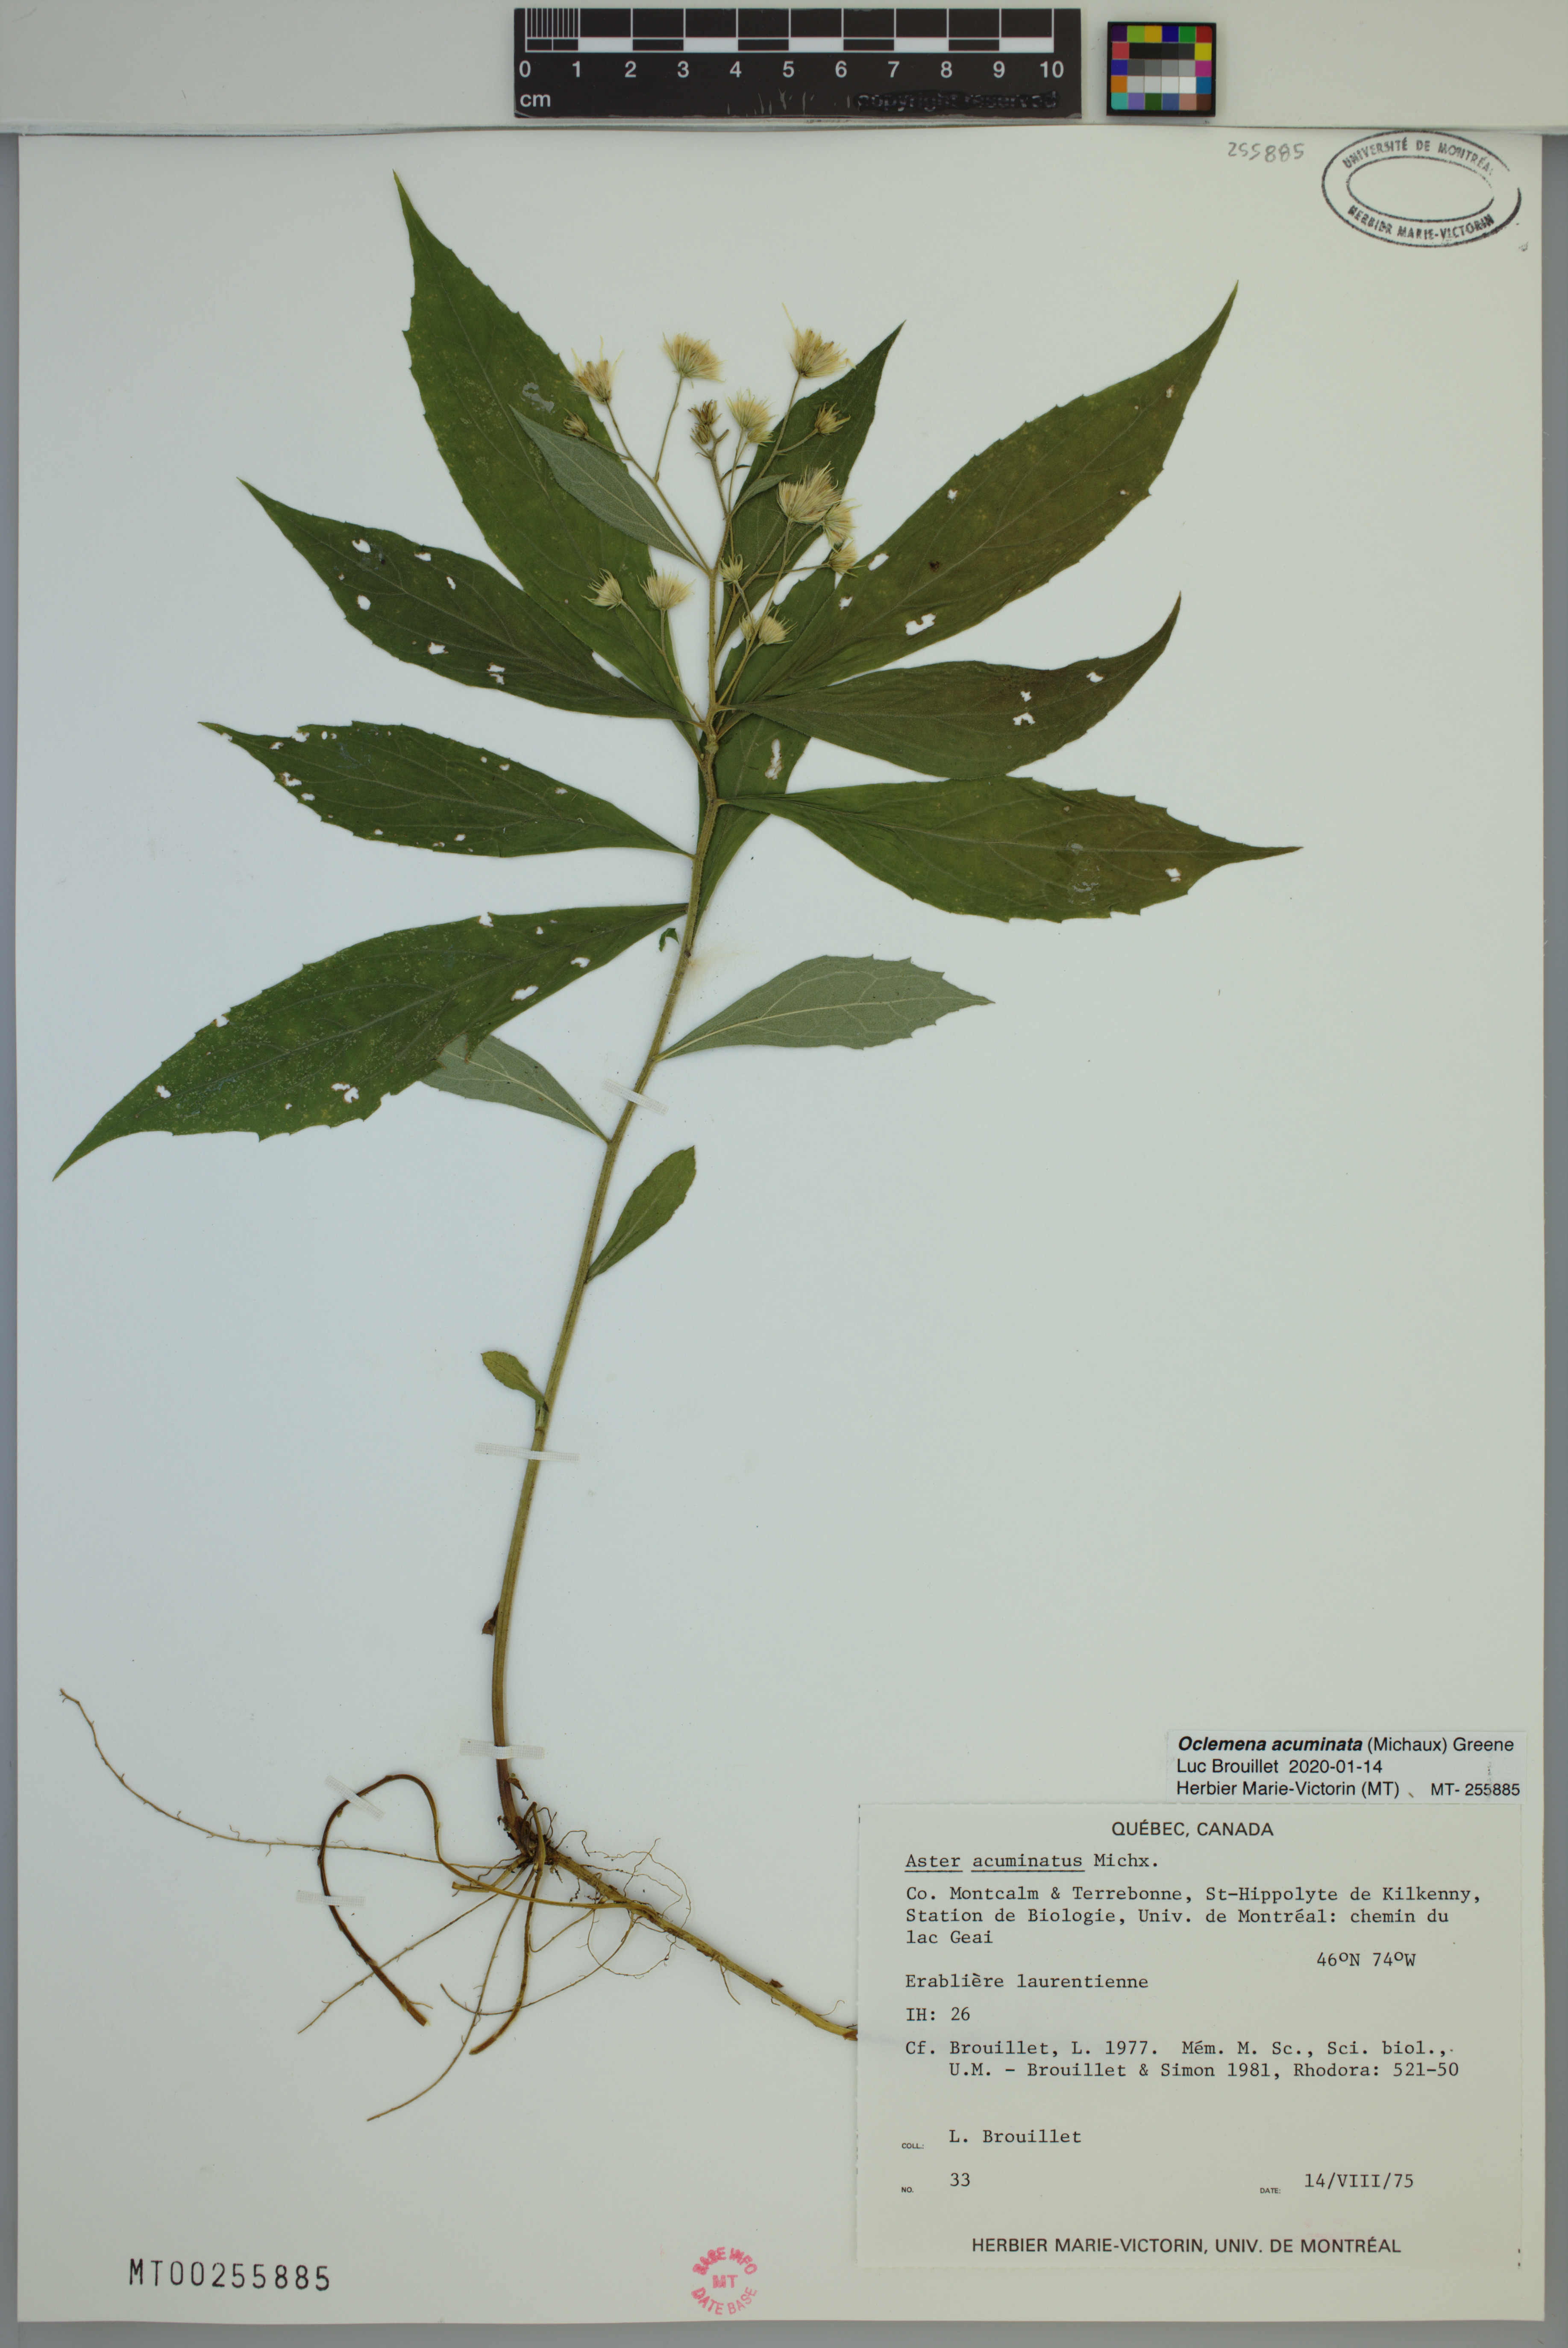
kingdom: Plantae
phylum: Tracheophyta
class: Magnoliopsida
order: Asterales
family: Asteraceae
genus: Oclemena
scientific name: Oclemena acuminata
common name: Mountain aster
